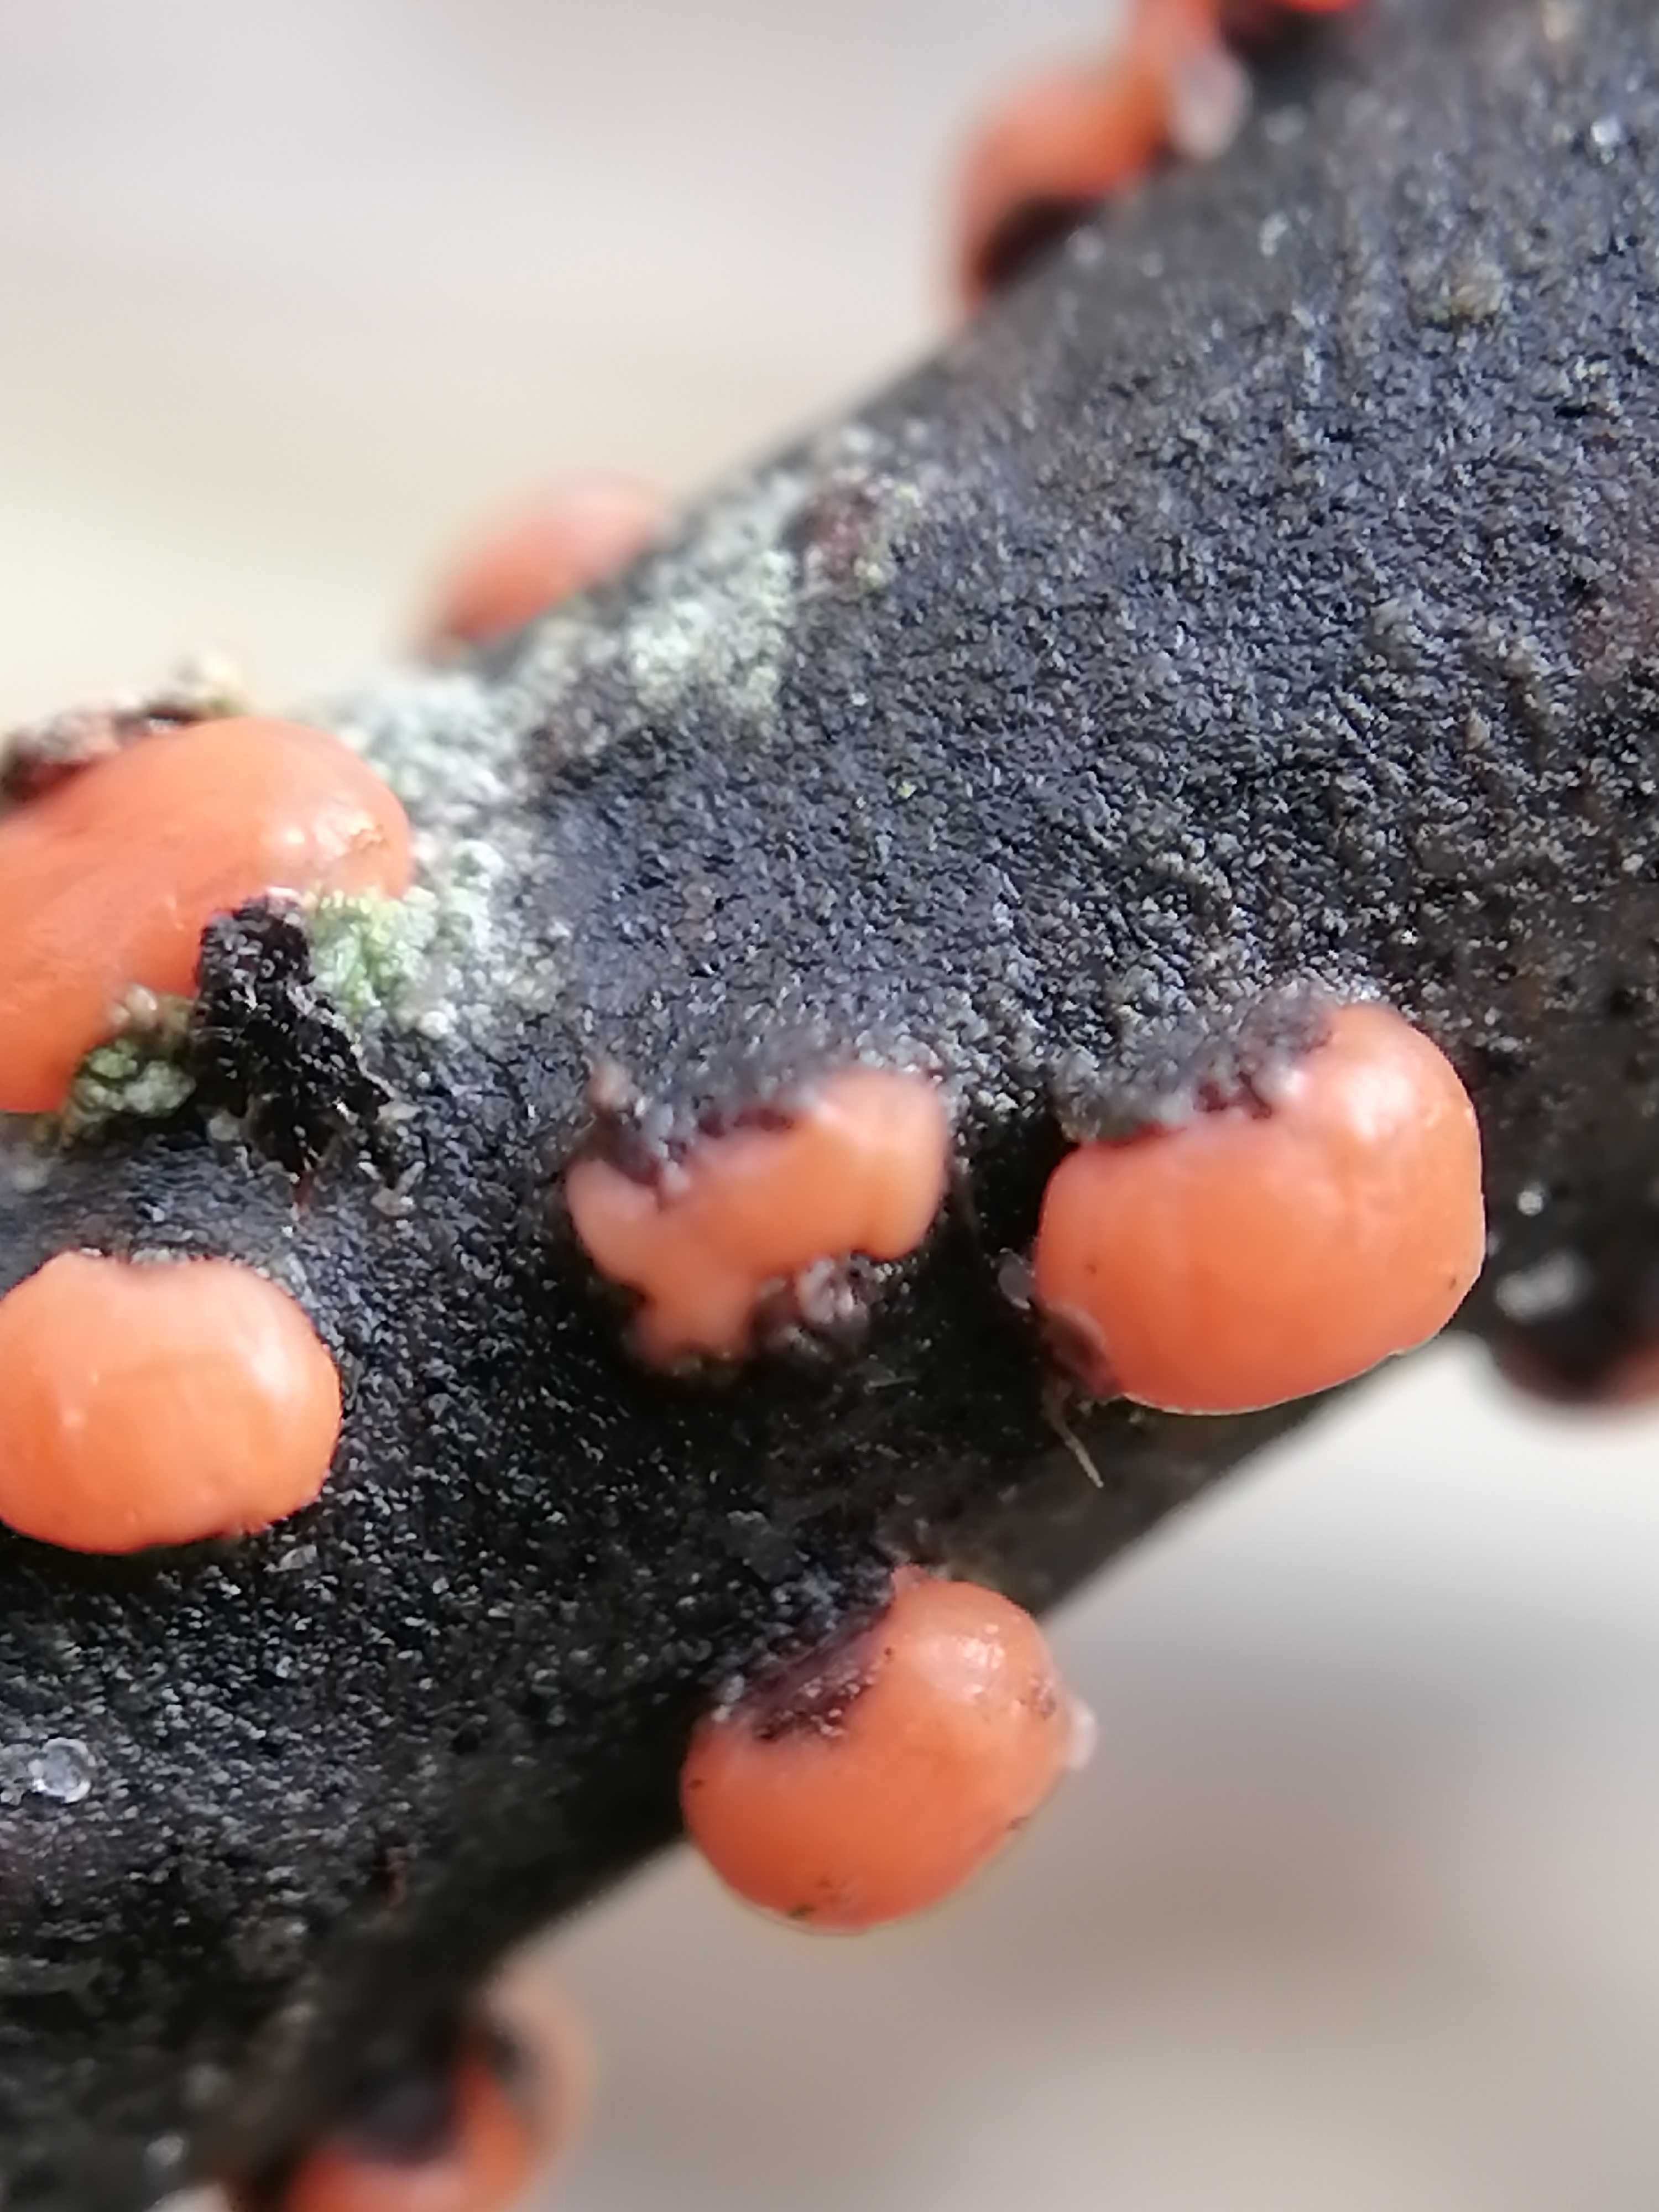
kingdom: Fungi
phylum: Ascomycota
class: Sordariomycetes
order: Hypocreales
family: Nectriaceae
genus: Nectria
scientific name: Nectria cinnabarina
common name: almindelig cinnobersvamp
